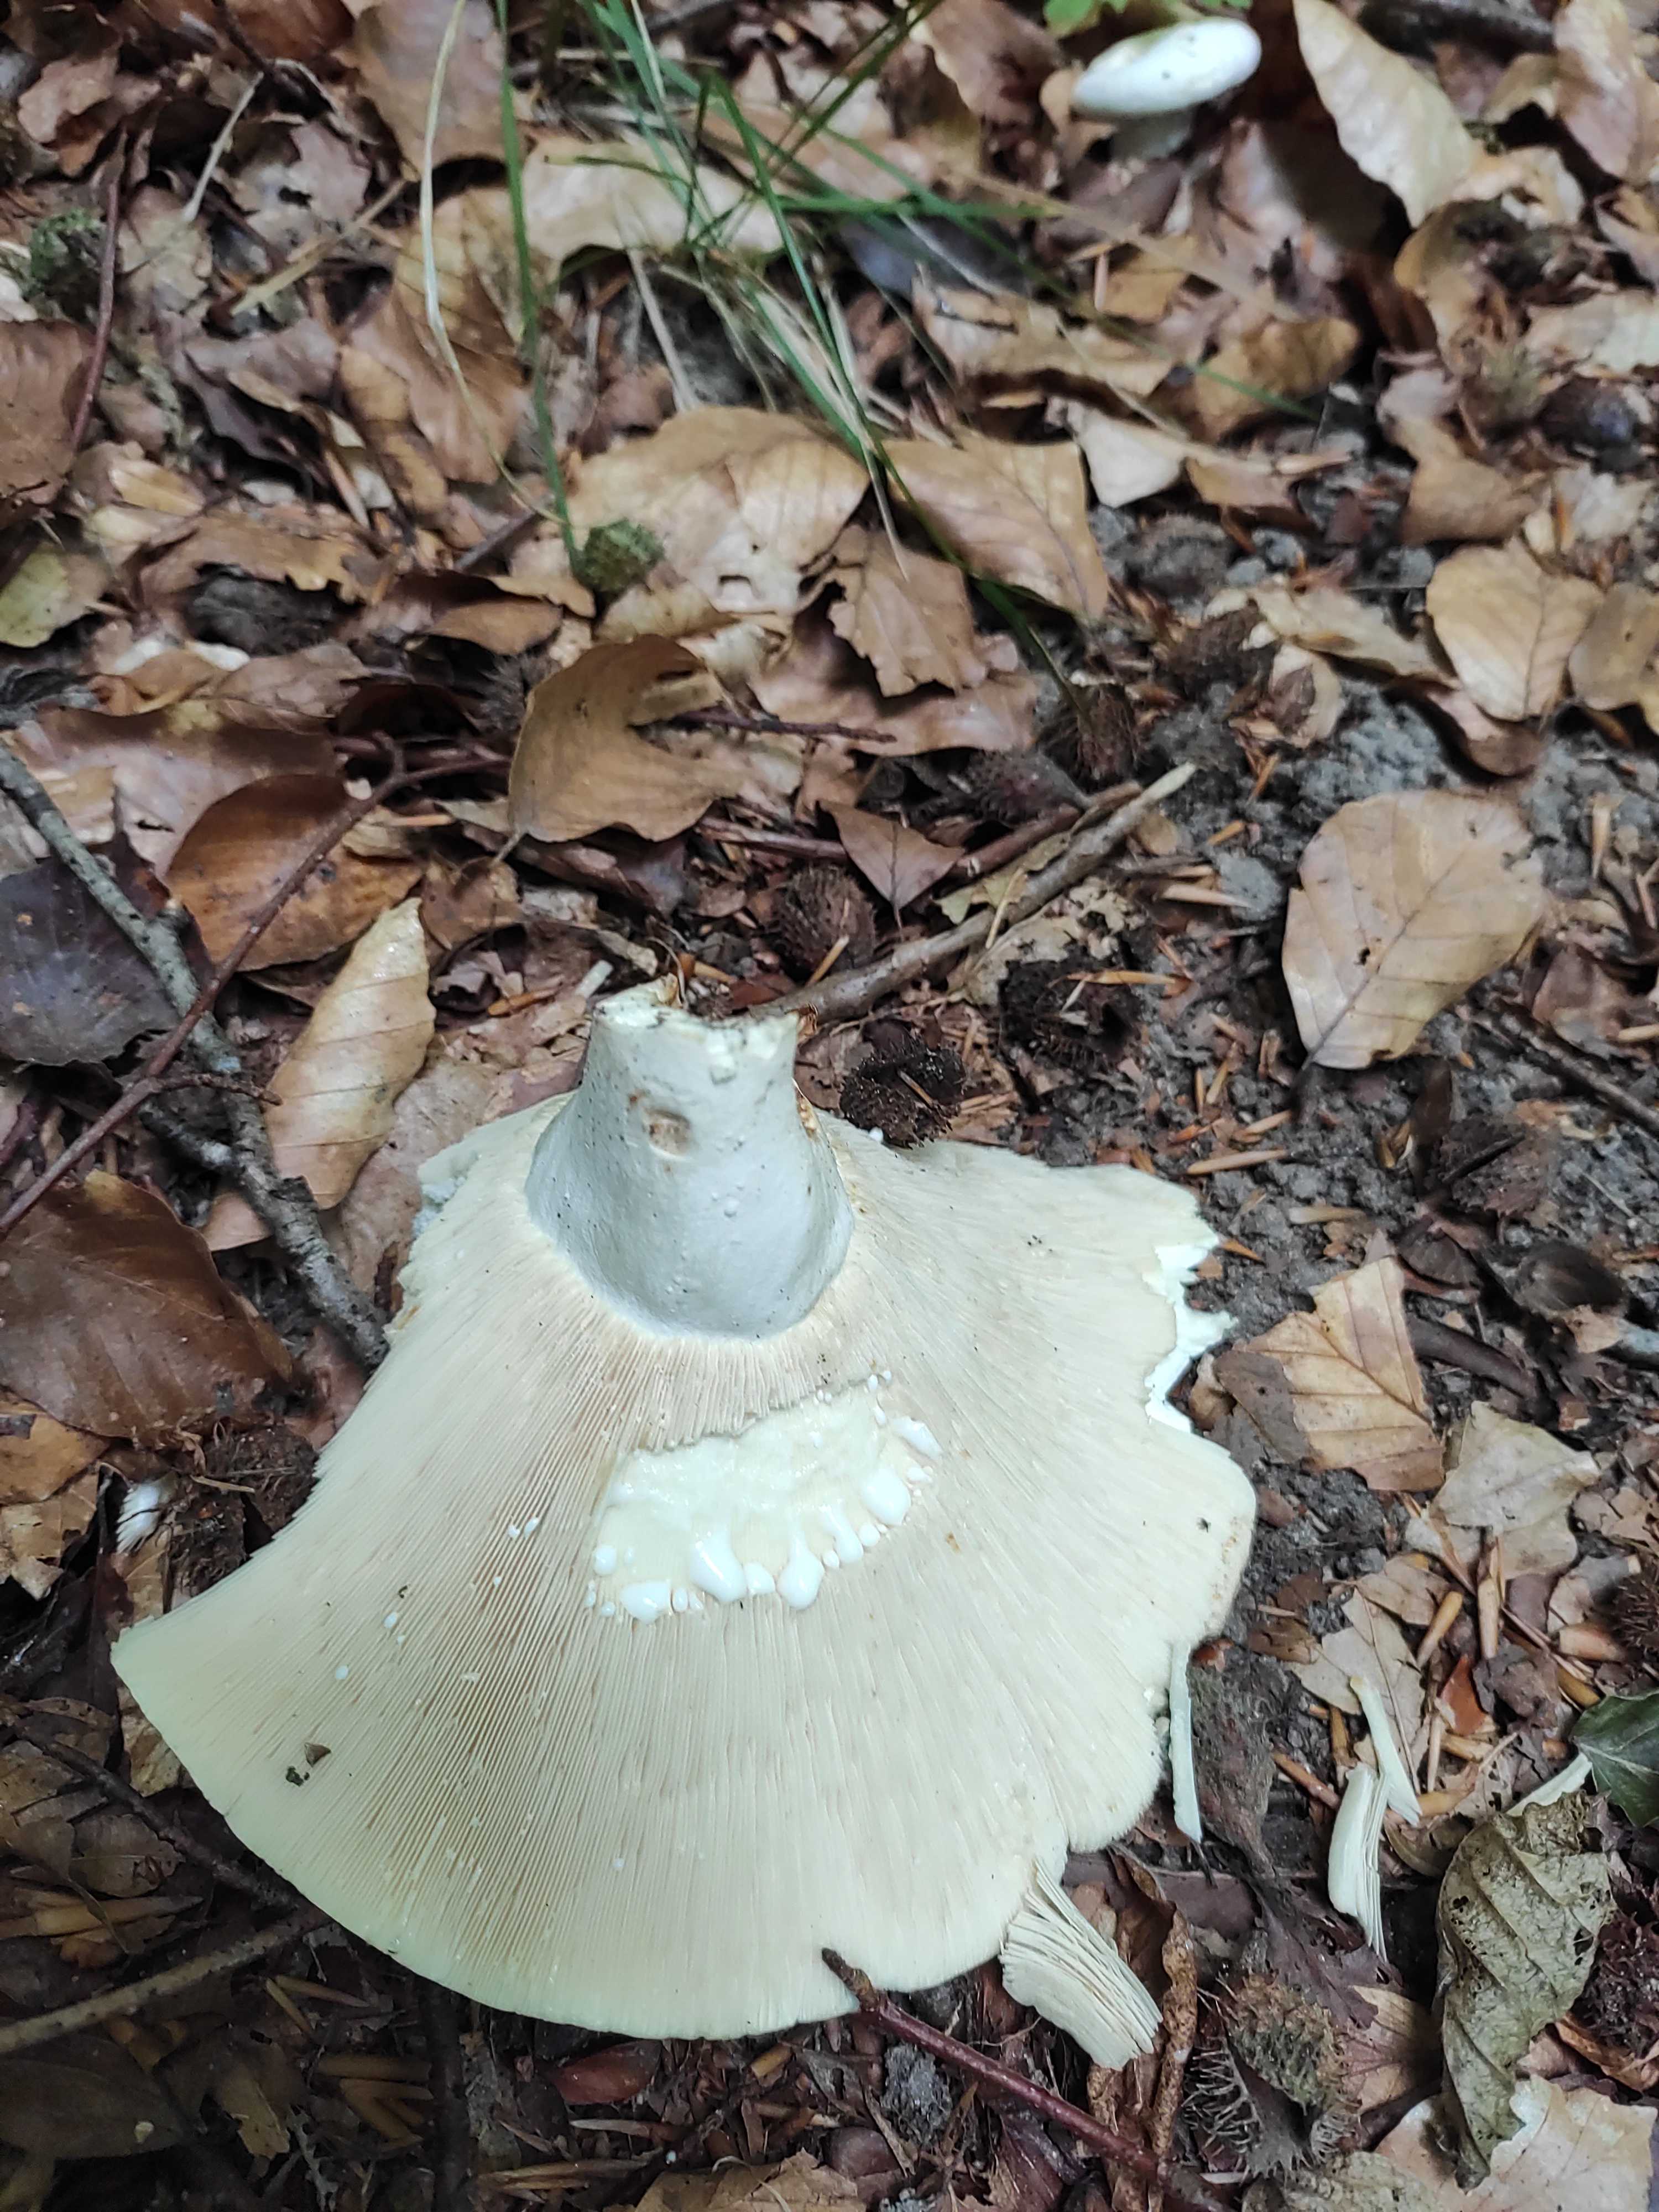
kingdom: Fungi
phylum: Basidiomycota
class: Agaricomycetes
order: Russulales
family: Russulaceae
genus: Lactifluus
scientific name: Lactifluus
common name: mælkehat
